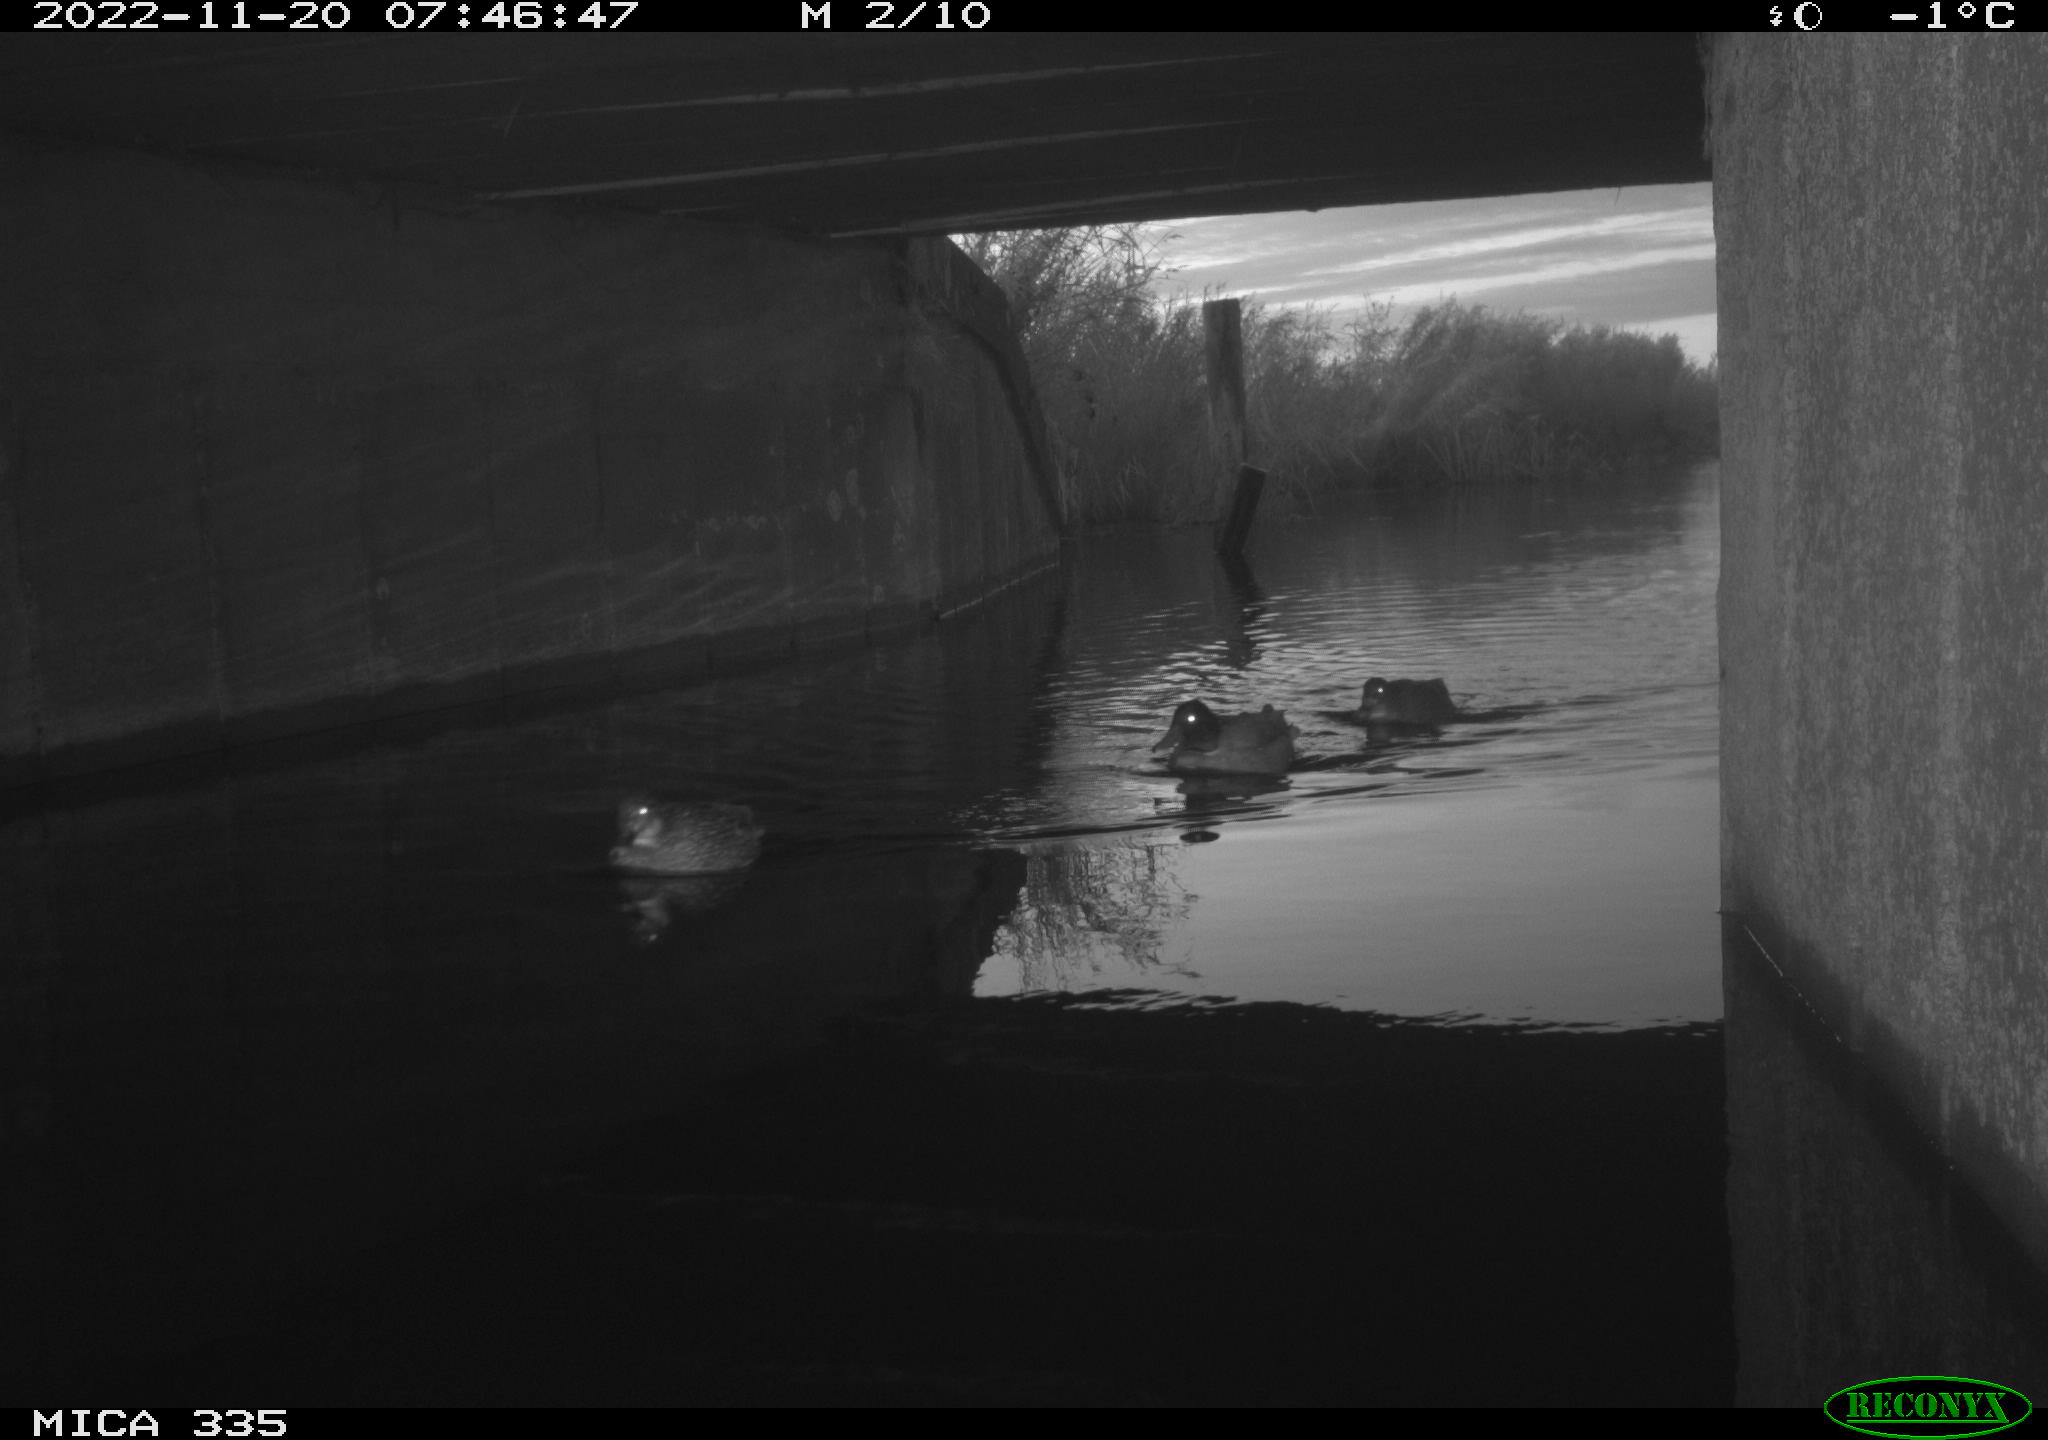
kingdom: Animalia
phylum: Chordata
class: Aves
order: Anseriformes
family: Anatidae
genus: Anas
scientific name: Anas
